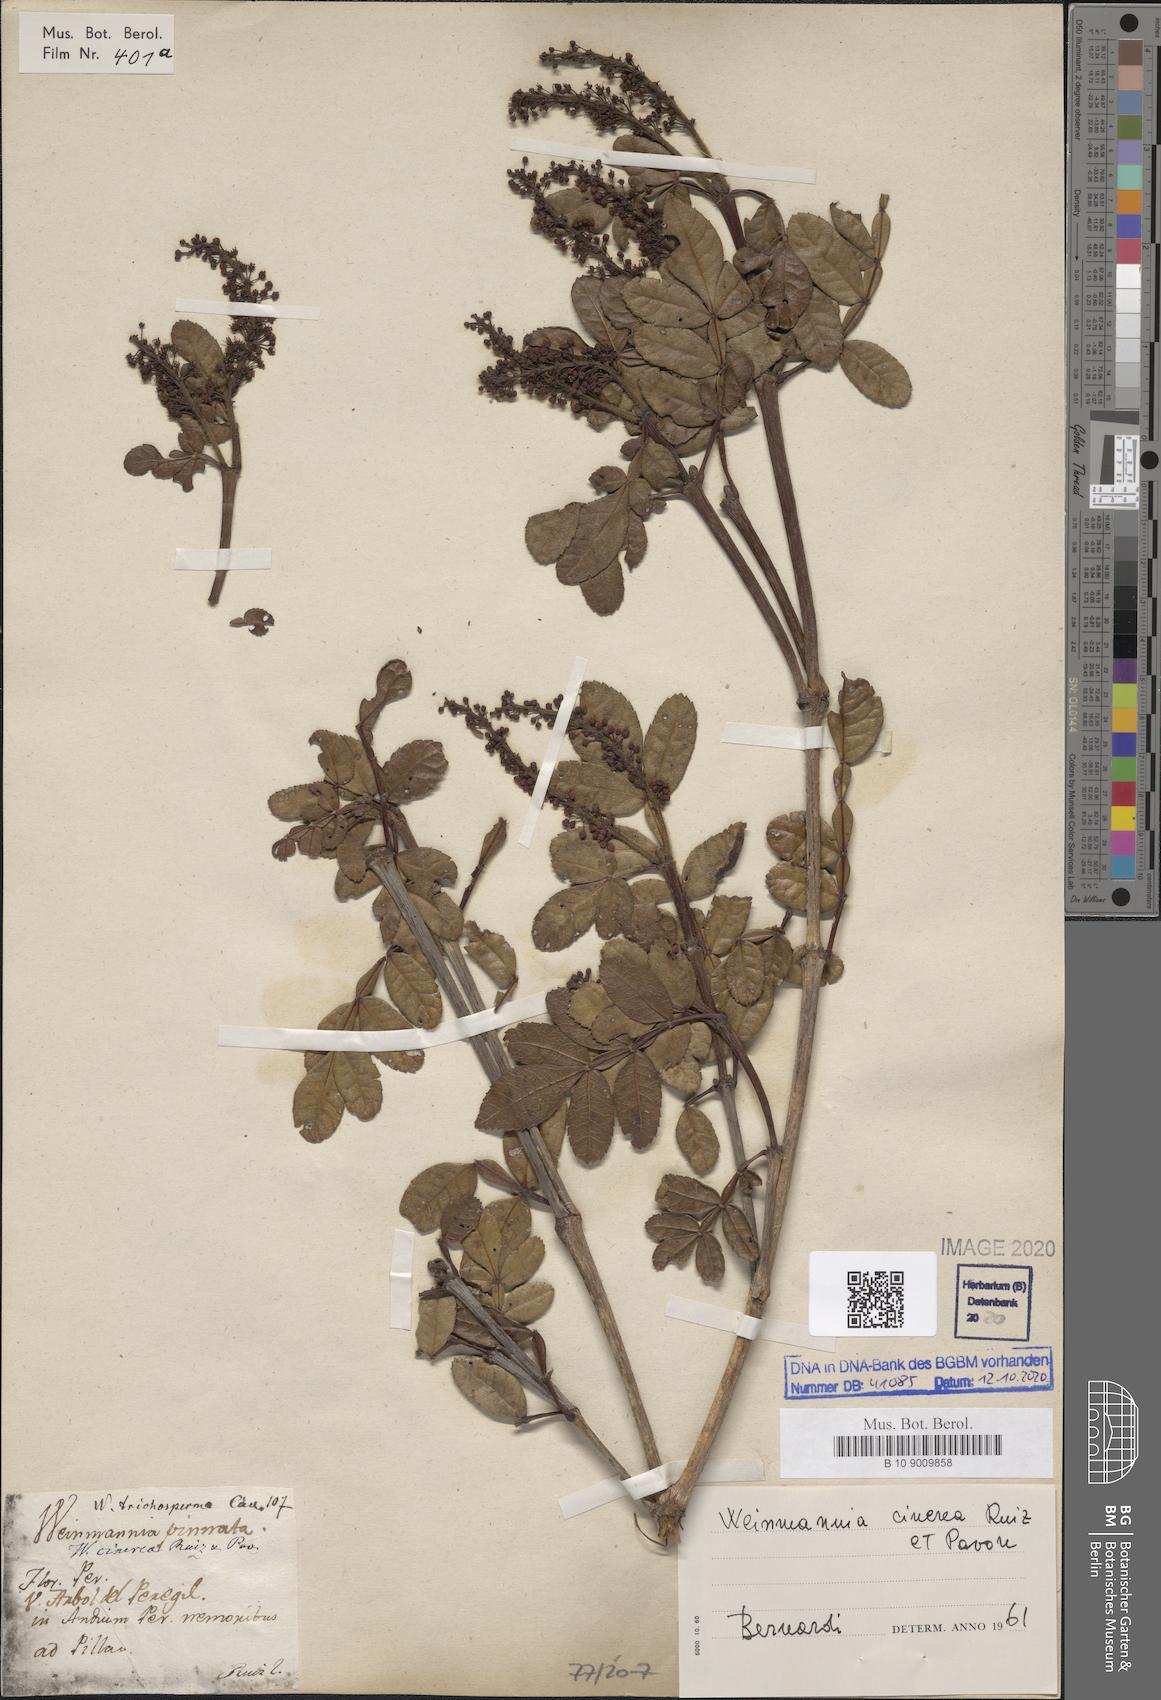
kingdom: Plantae
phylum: Tracheophyta
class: Magnoliopsida
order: Oxalidales
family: Cunoniaceae
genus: Weinmannia
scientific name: Weinmannia cinerea
